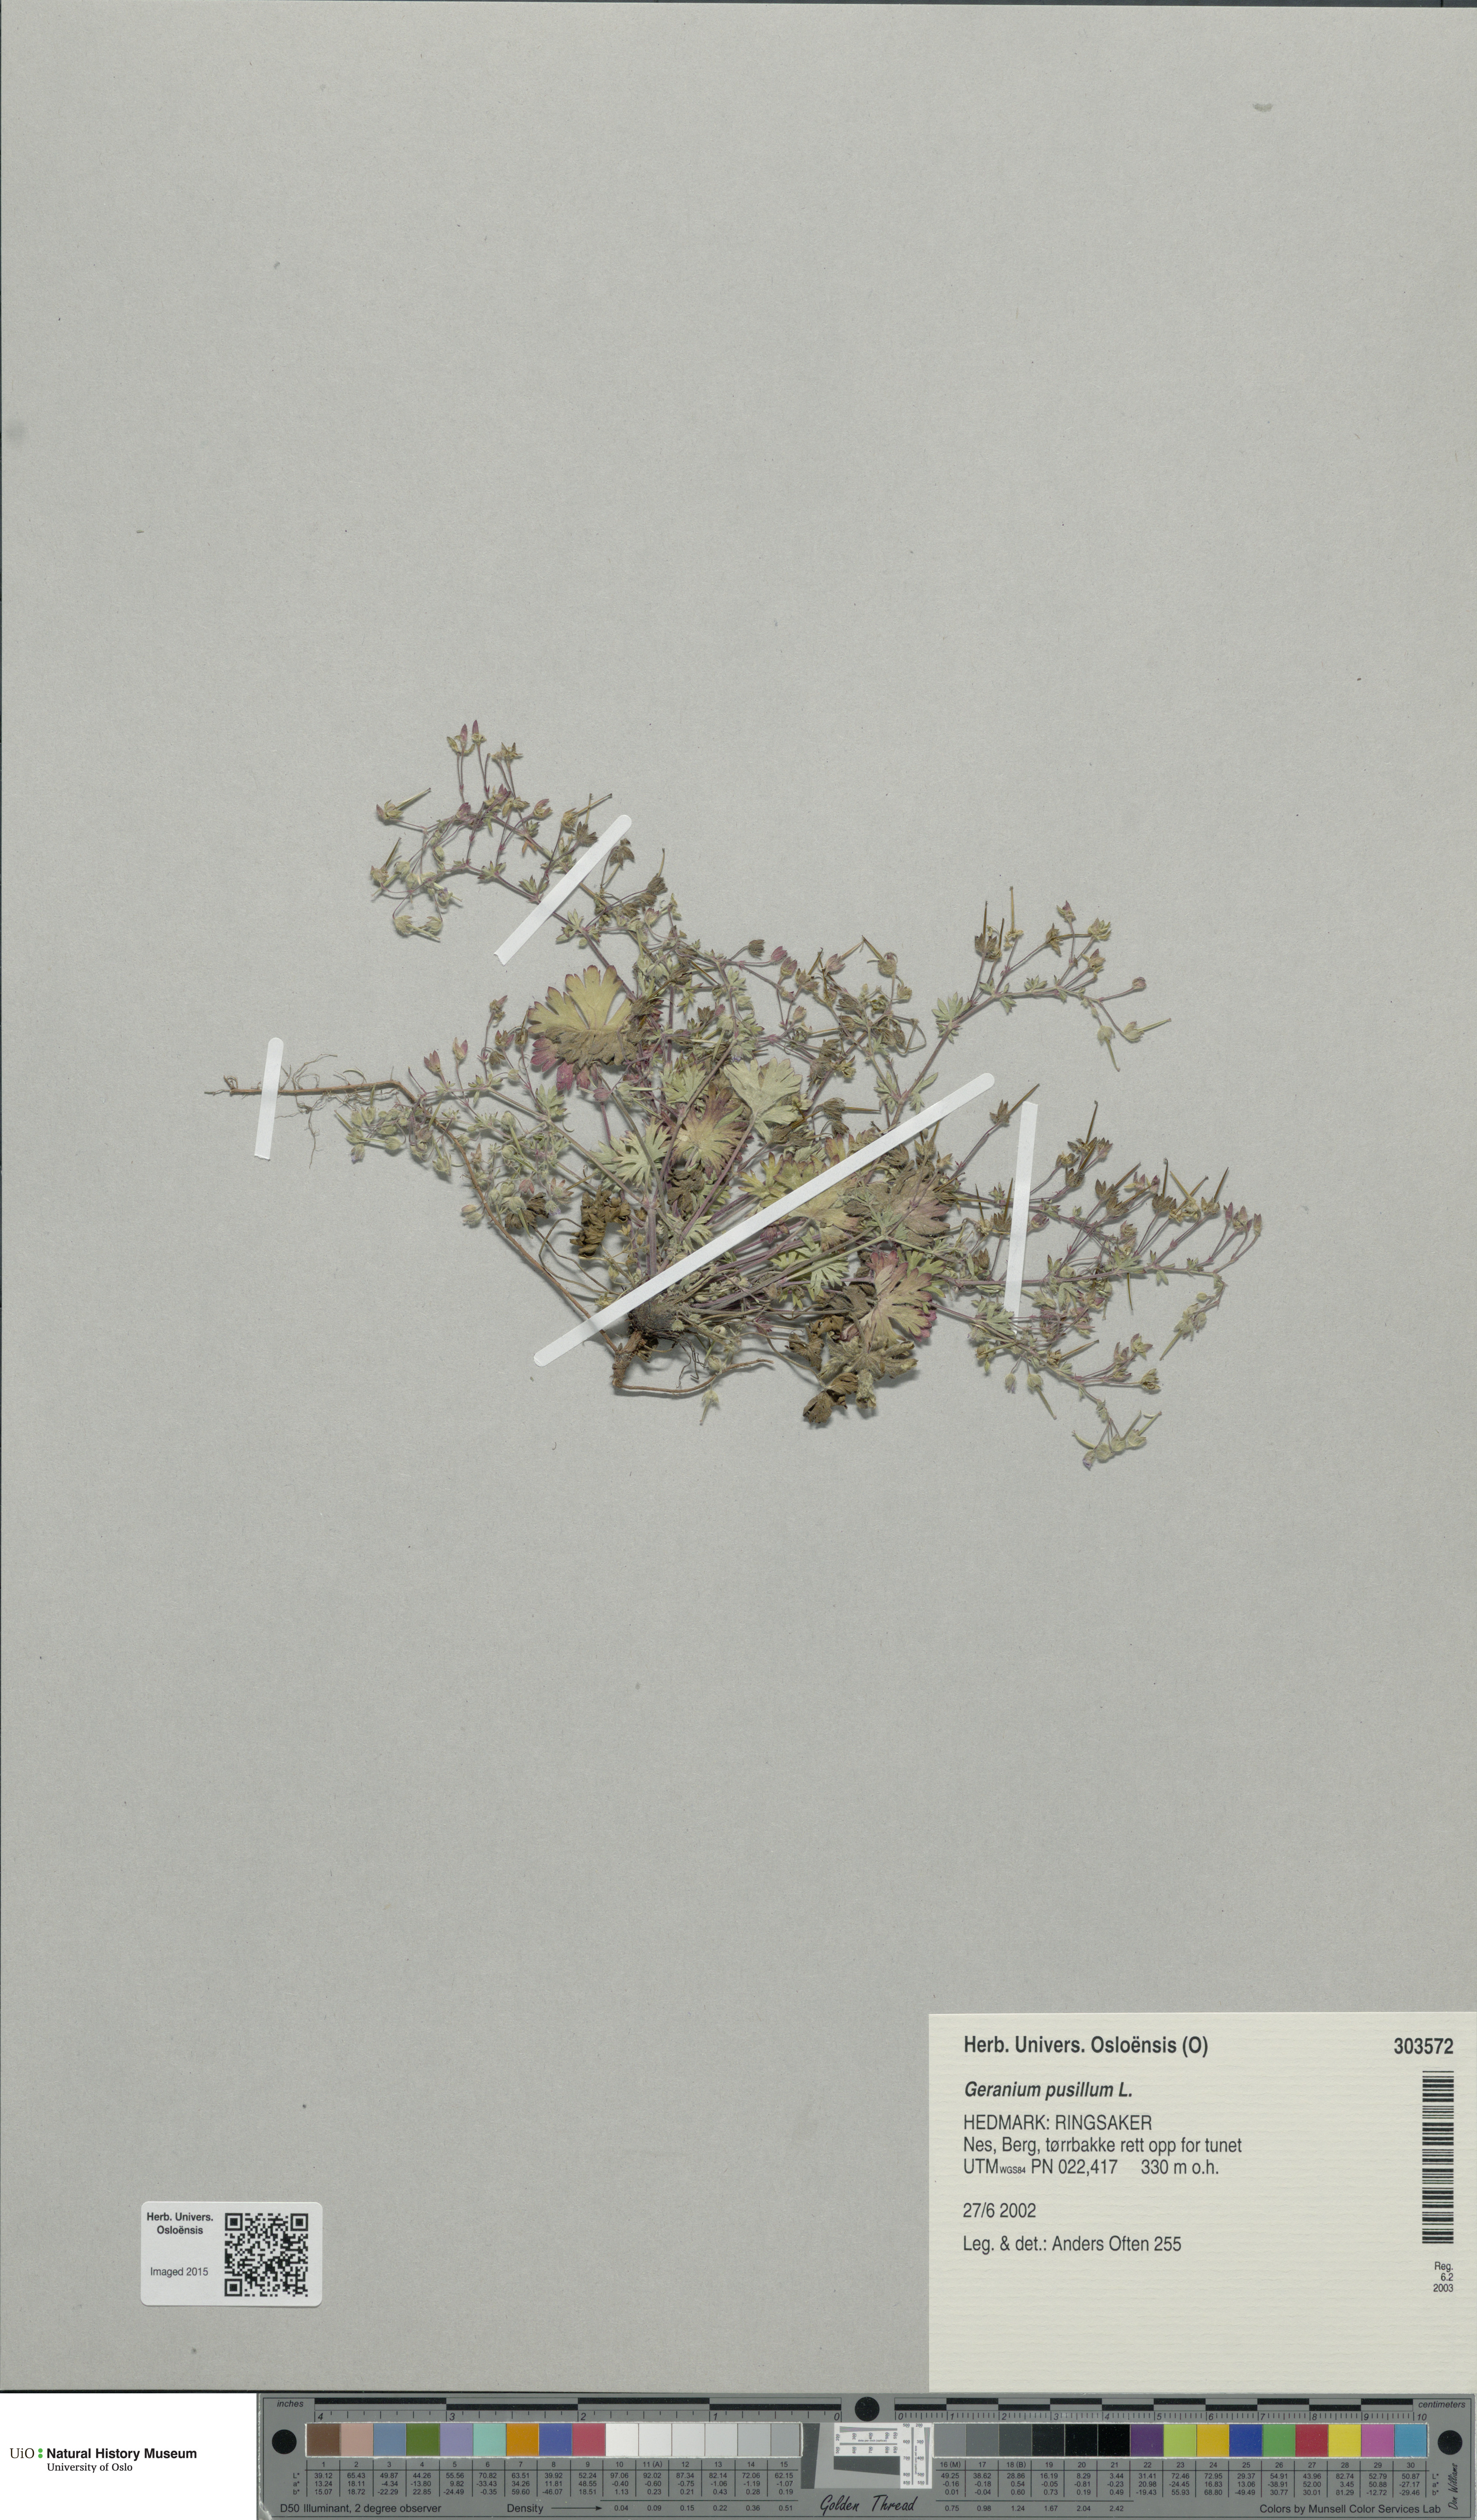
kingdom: Plantae
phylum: Tracheophyta
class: Magnoliopsida
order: Geraniales
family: Geraniaceae
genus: Geranium
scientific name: Geranium pusillum
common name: Small geranium
